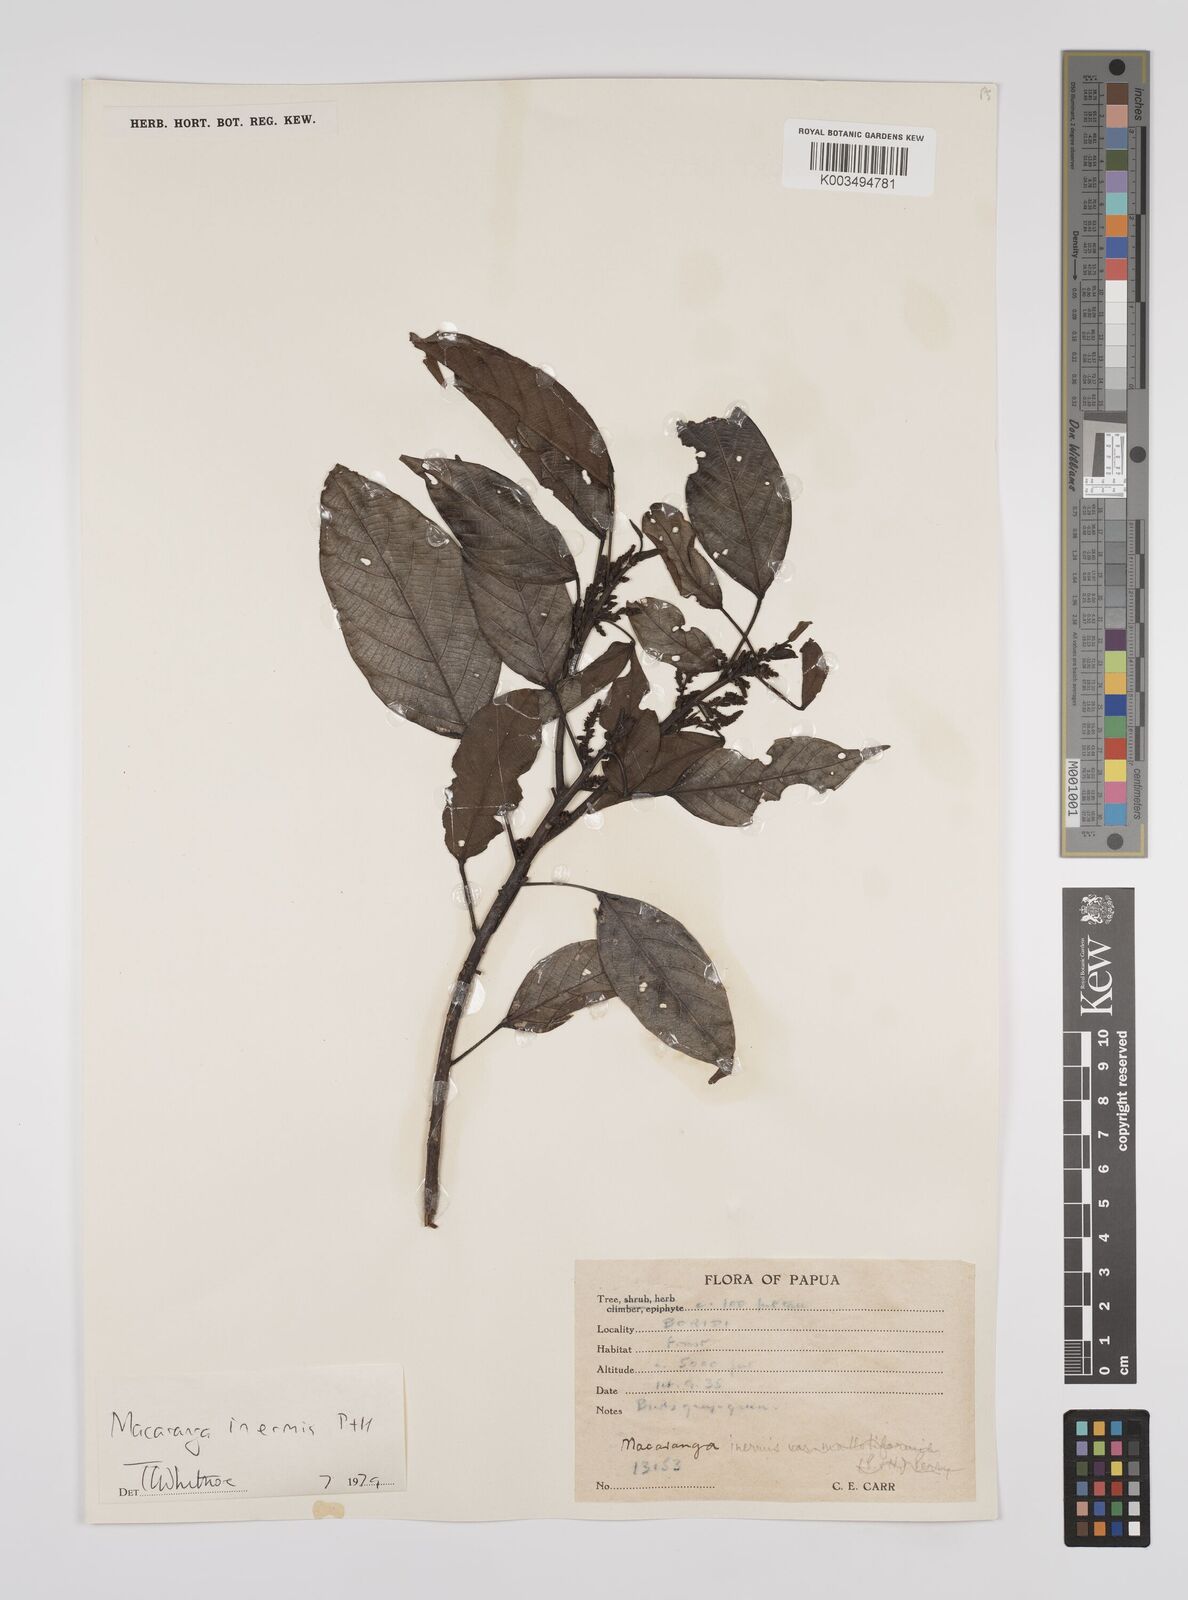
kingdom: Plantae
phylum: Tracheophyta
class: Magnoliopsida
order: Malpighiales
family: Euphorbiaceae
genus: Macaranga
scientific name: Macaranga inermis
